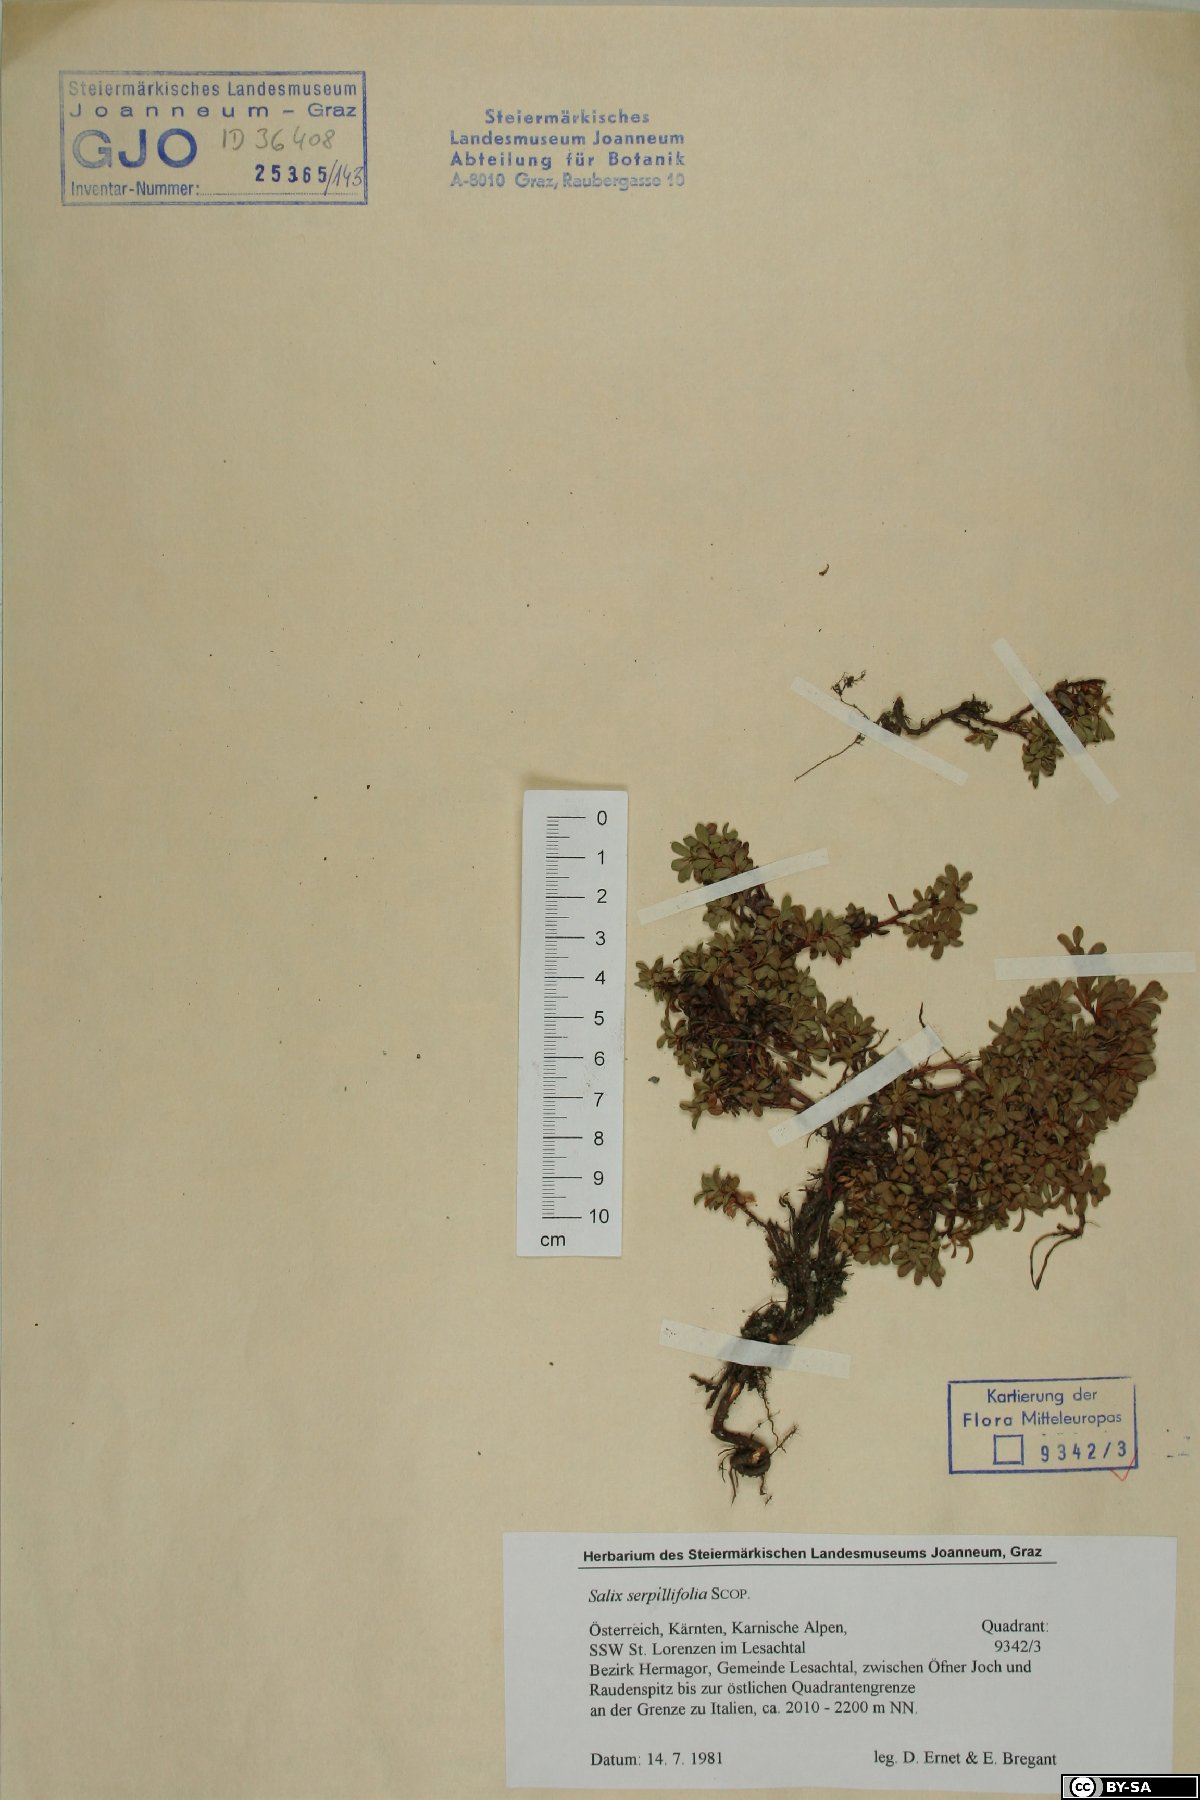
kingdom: Plantae
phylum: Tracheophyta
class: Magnoliopsida
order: Malpighiales
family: Salicaceae
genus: Salix
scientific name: Salix serpillifolia
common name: Thyme-leaf willow
